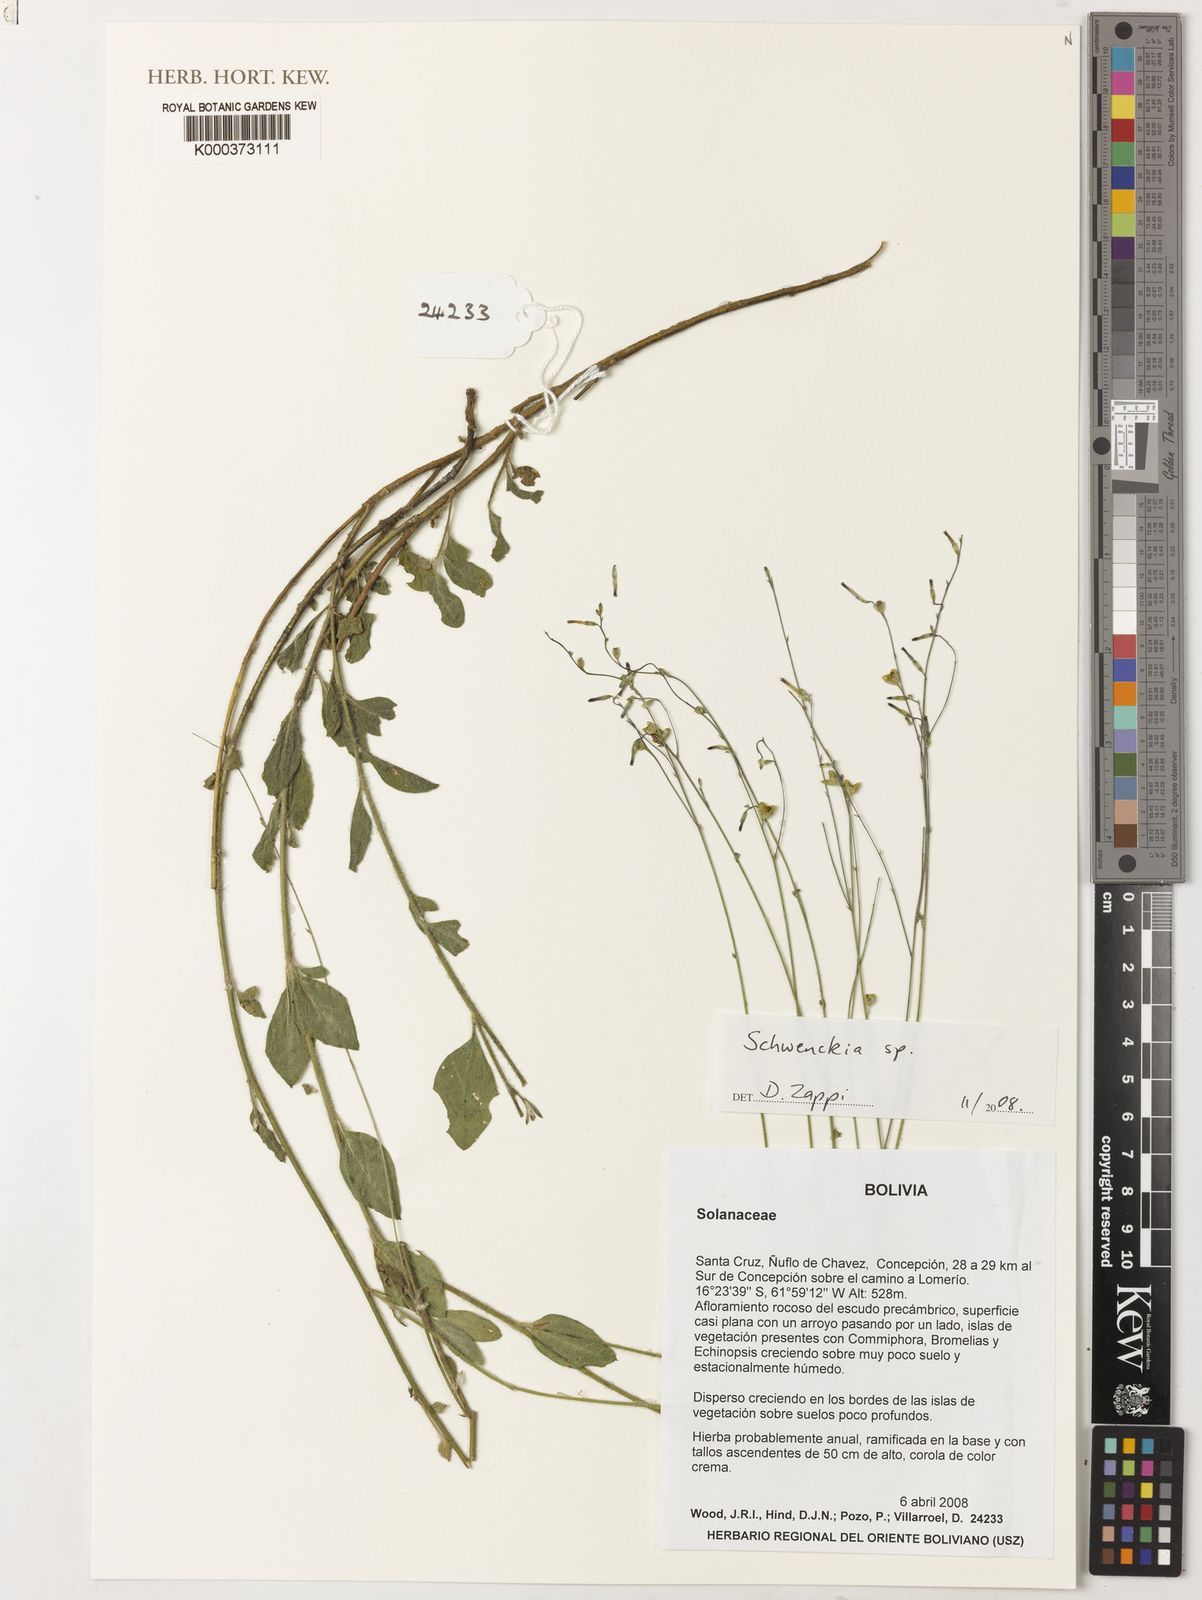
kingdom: Plantae
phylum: Tracheophyta
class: Magnoliopsida
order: Solanales
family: Solanaceae
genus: Schwenckia
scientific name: Schwenckia
